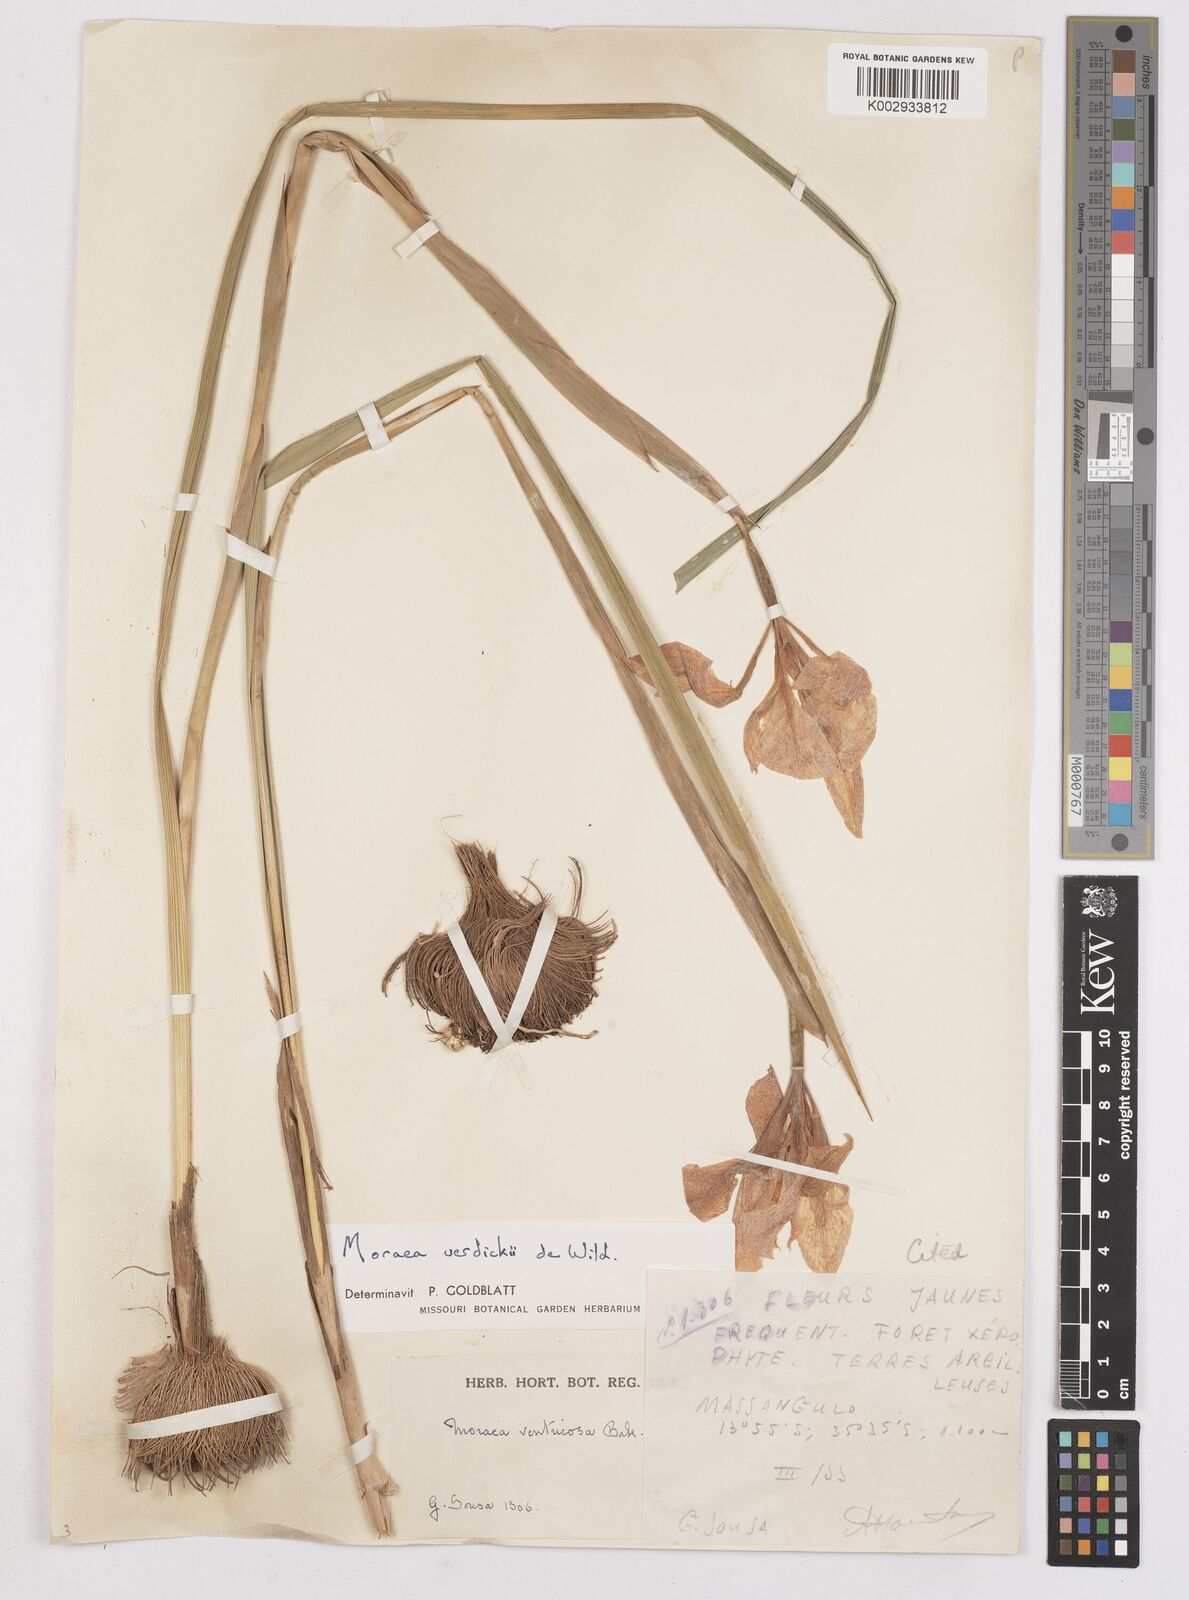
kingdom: Plantae
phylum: Tracheophyta
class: Liliopsida
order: Asparagales
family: Iridaceae
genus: Moraea
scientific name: Moraea verdickii
